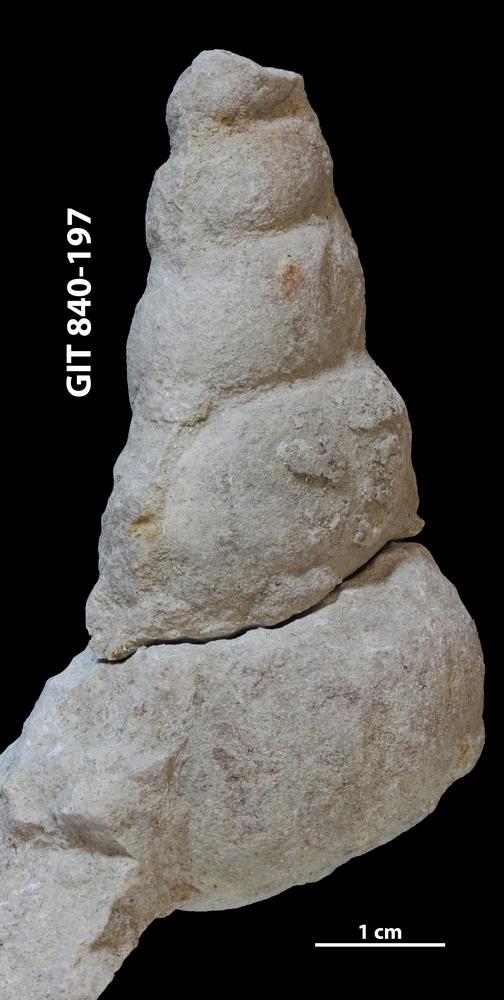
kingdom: Animalia
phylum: Mollusca
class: Gastropoda
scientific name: Gastropoda
